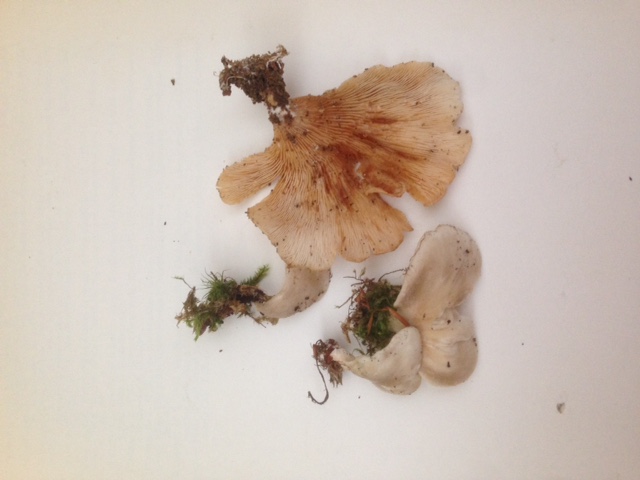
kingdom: Fungi
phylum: Basidiomycota
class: Agaricomycetes
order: Agaricales
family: Pleurotaceae
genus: Hohenbuehelia
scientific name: Hohenbuehelia auriscalpium
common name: spatel-filthat
